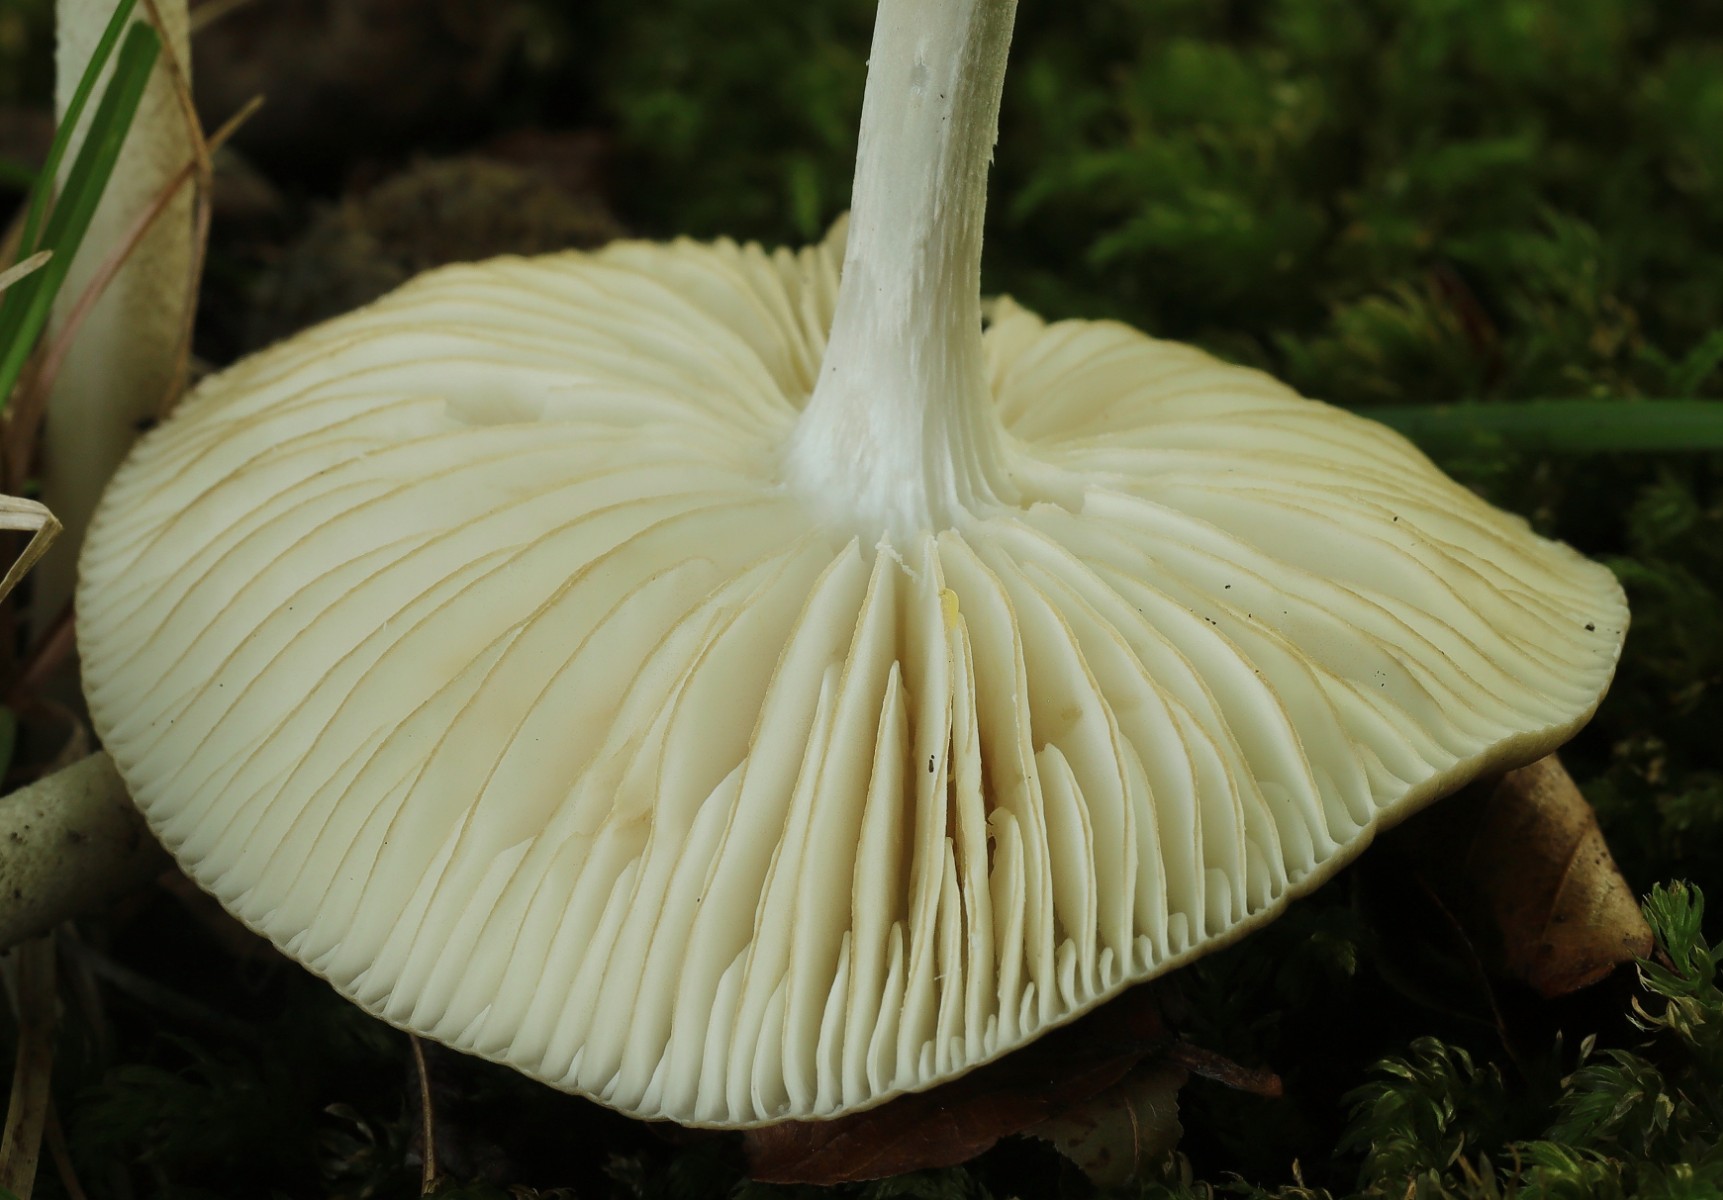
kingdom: Fungi
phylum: Basidiomycota
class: Agaricomycetes
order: Agaricales
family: Physalacriaceae
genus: Hymenopellis
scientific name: Hymenopellis radicata
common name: almindelig pælerodshat
